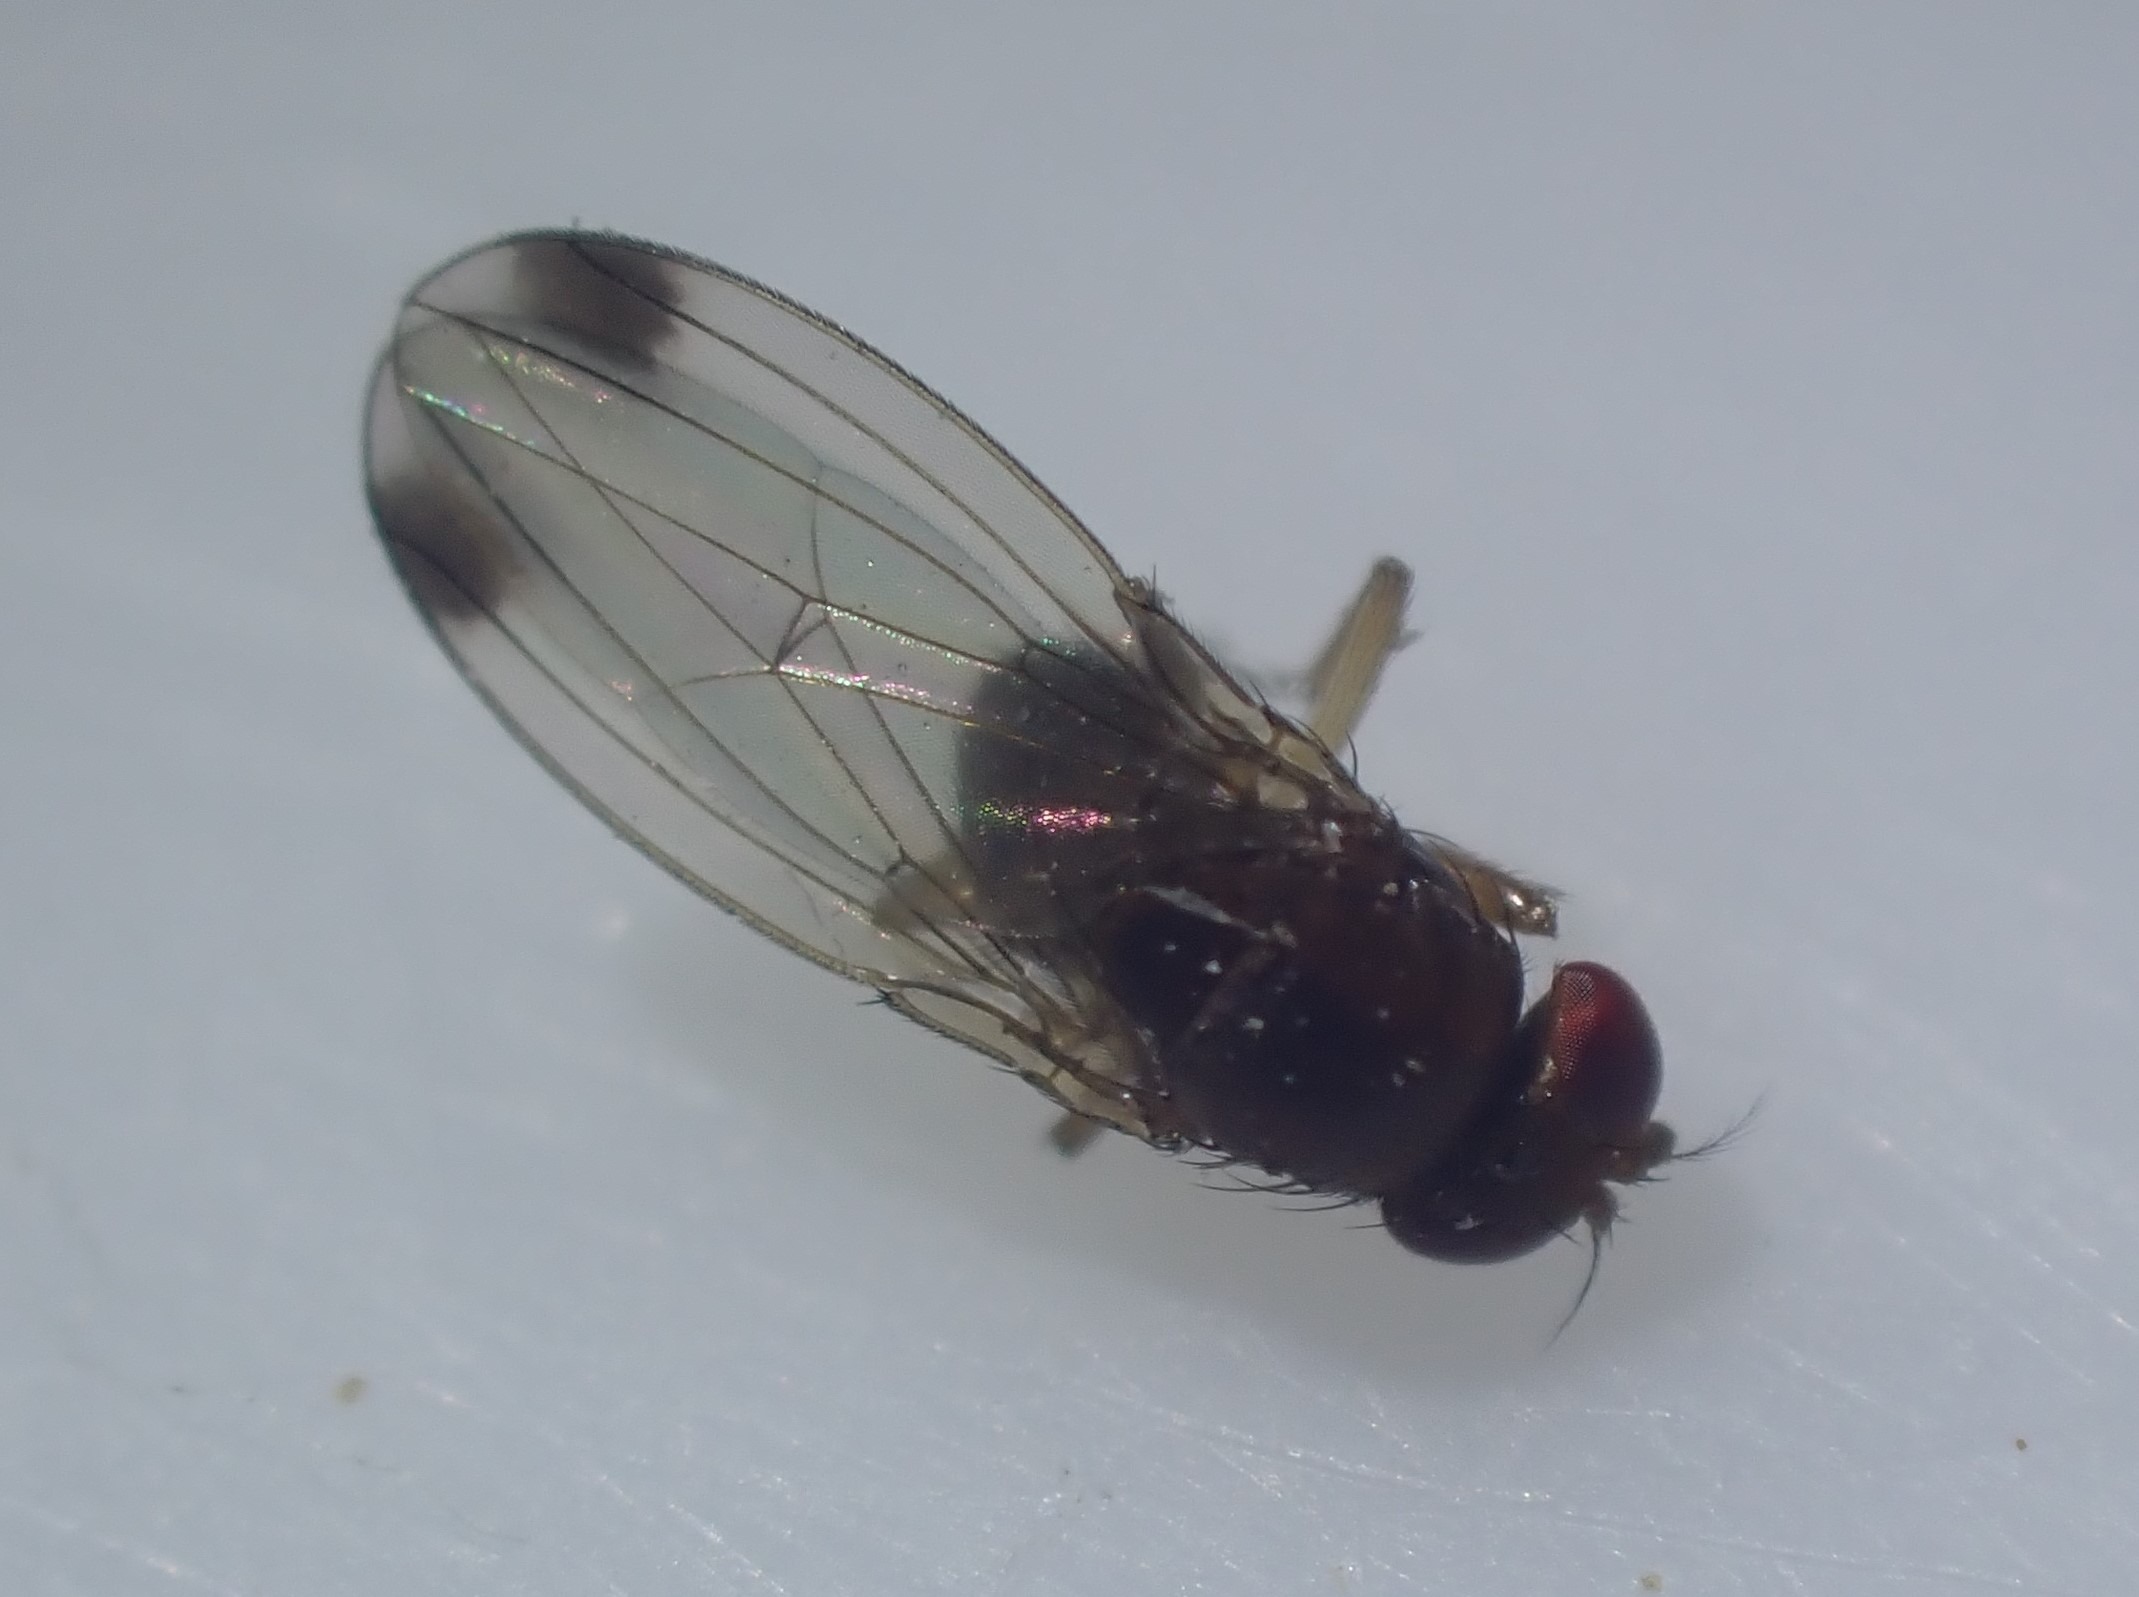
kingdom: Animalia
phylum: Arthropoda
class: Insecta
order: Diptera
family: Drosophilidae
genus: Drosophila
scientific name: Drosophila suzukii
